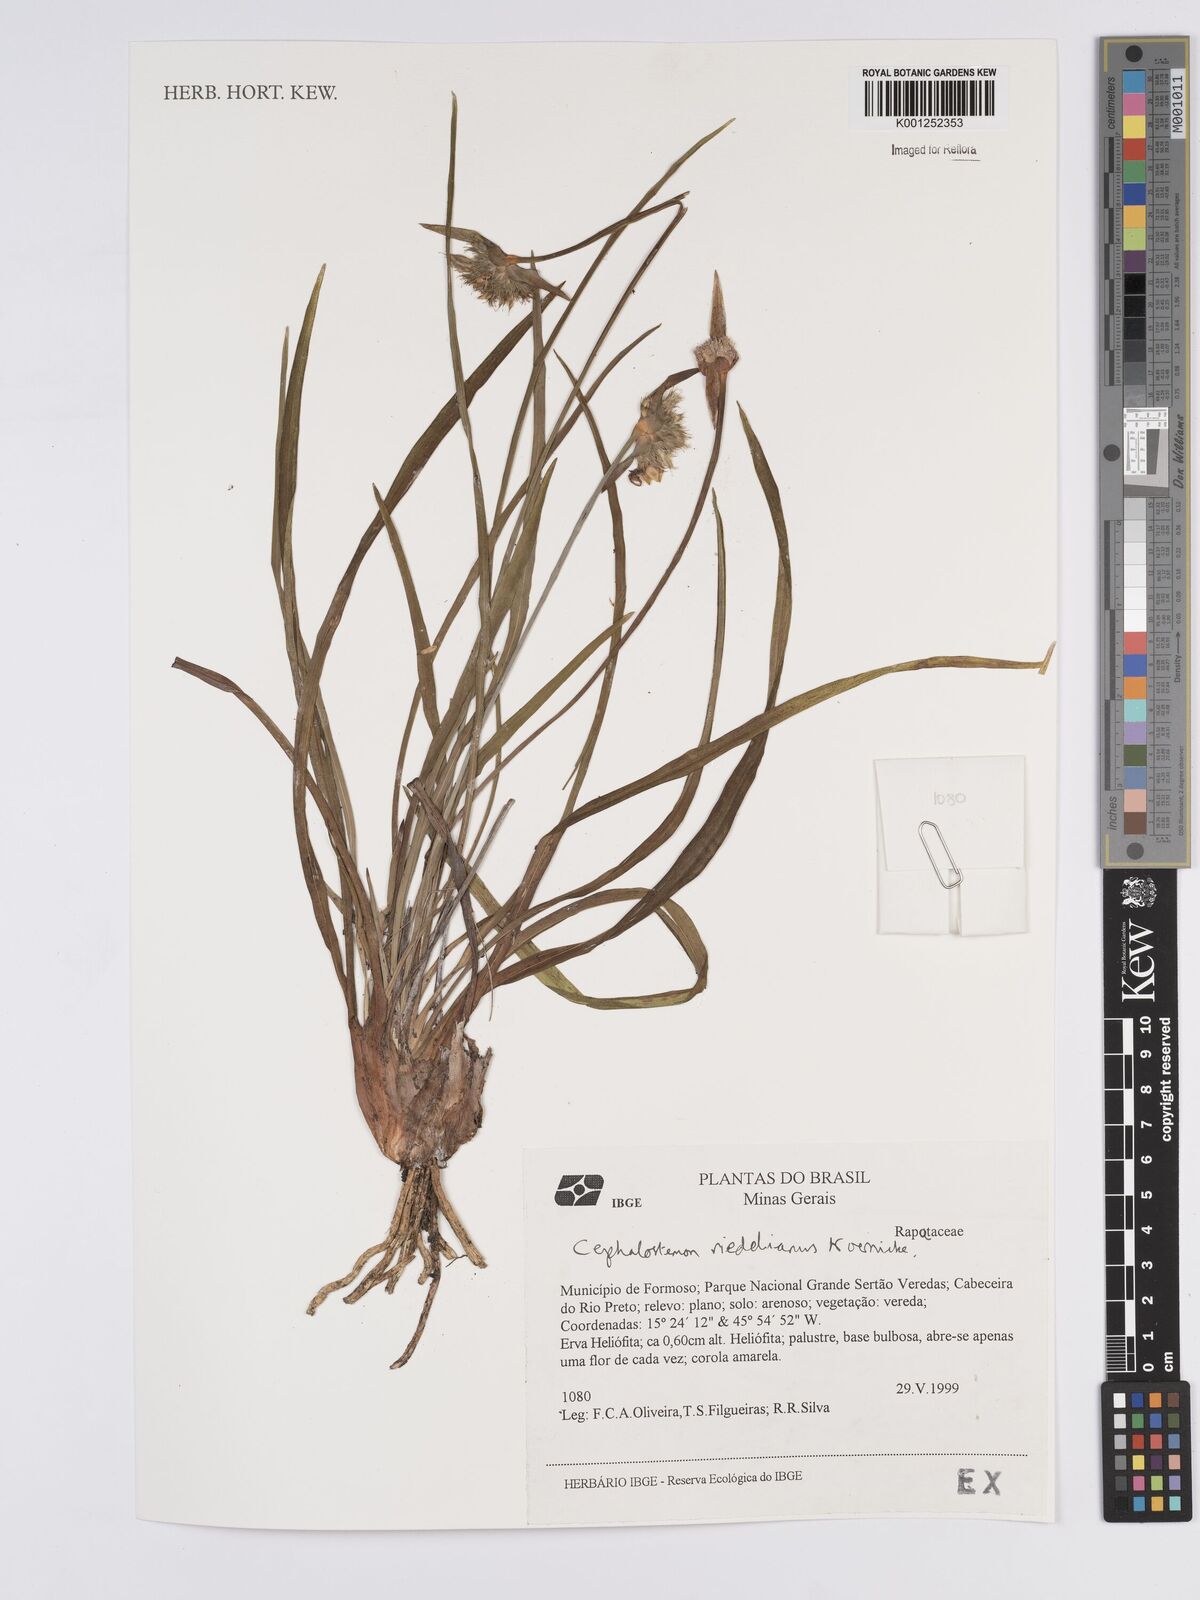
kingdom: Plantae
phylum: Tracheophyta
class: Liliopsida
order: Poales
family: Rapateaceae
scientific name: Rapateaceae
